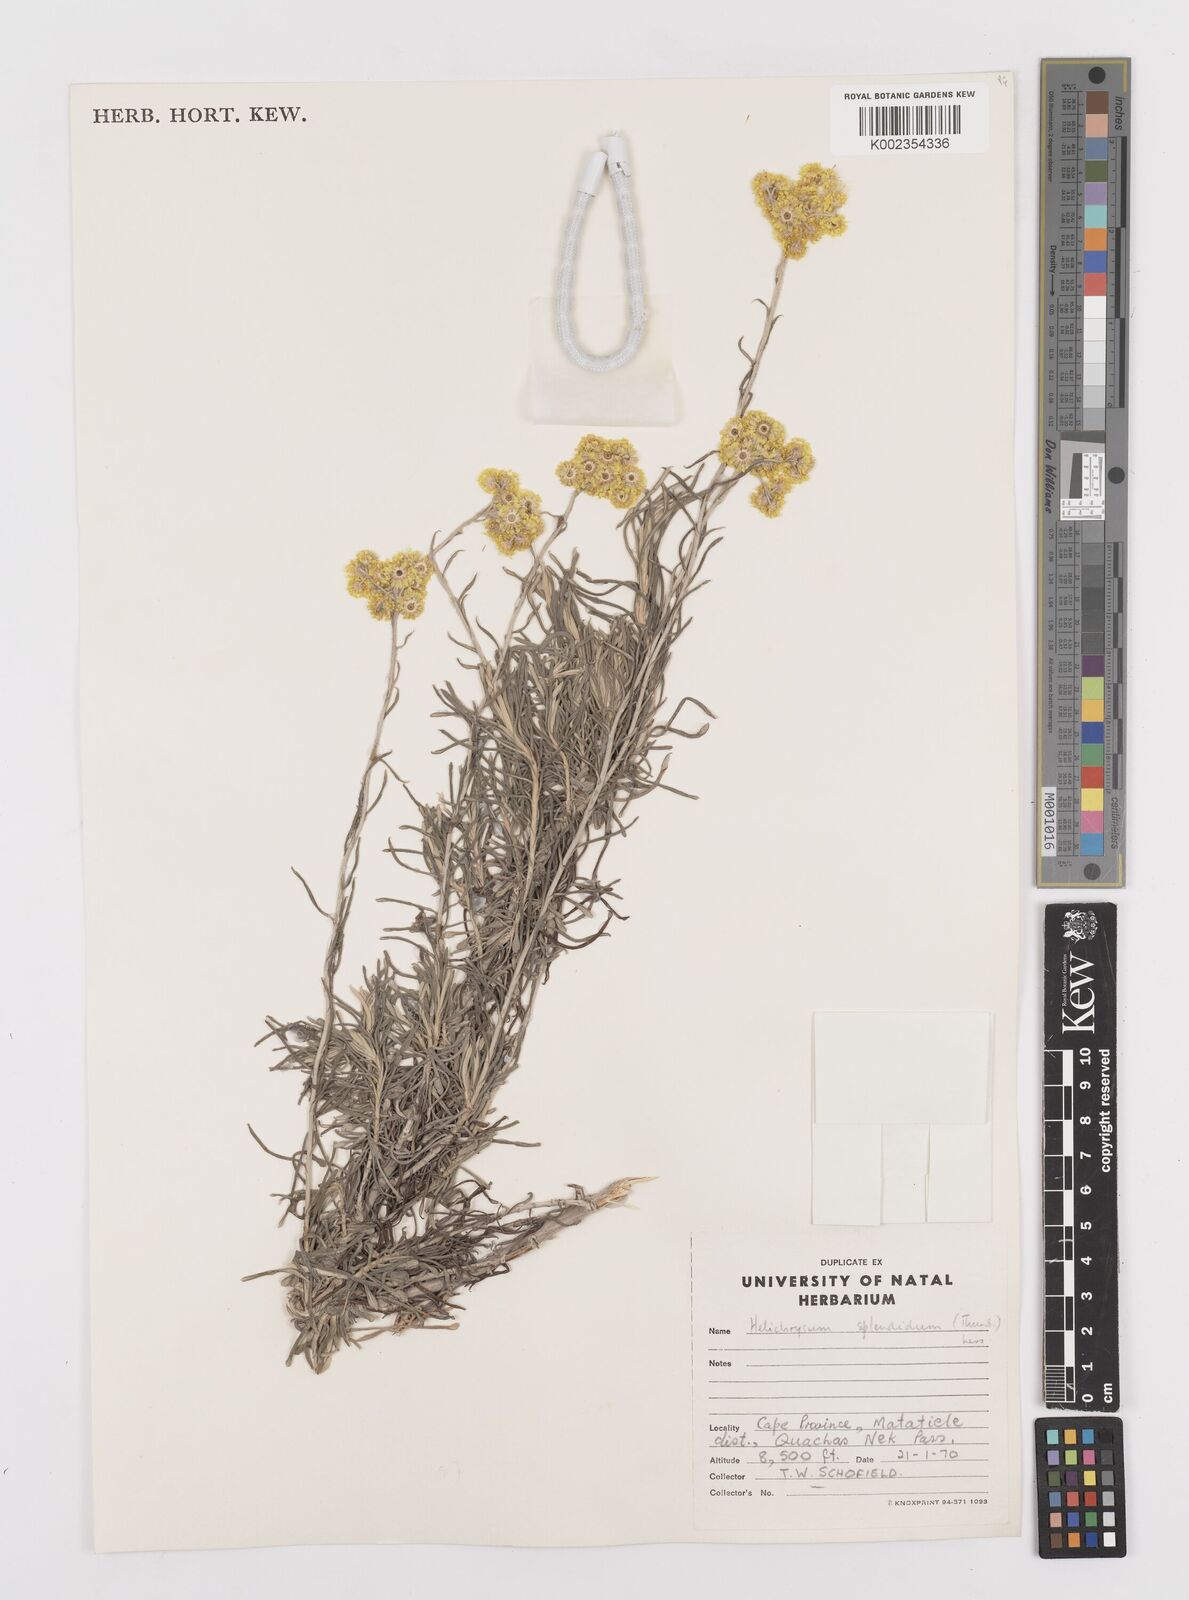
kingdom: Plantae
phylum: Tracheophyta
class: Magnoliopsida
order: Asterales
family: Asteraceae
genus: Helichrysum
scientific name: Helichrysum splendidum
